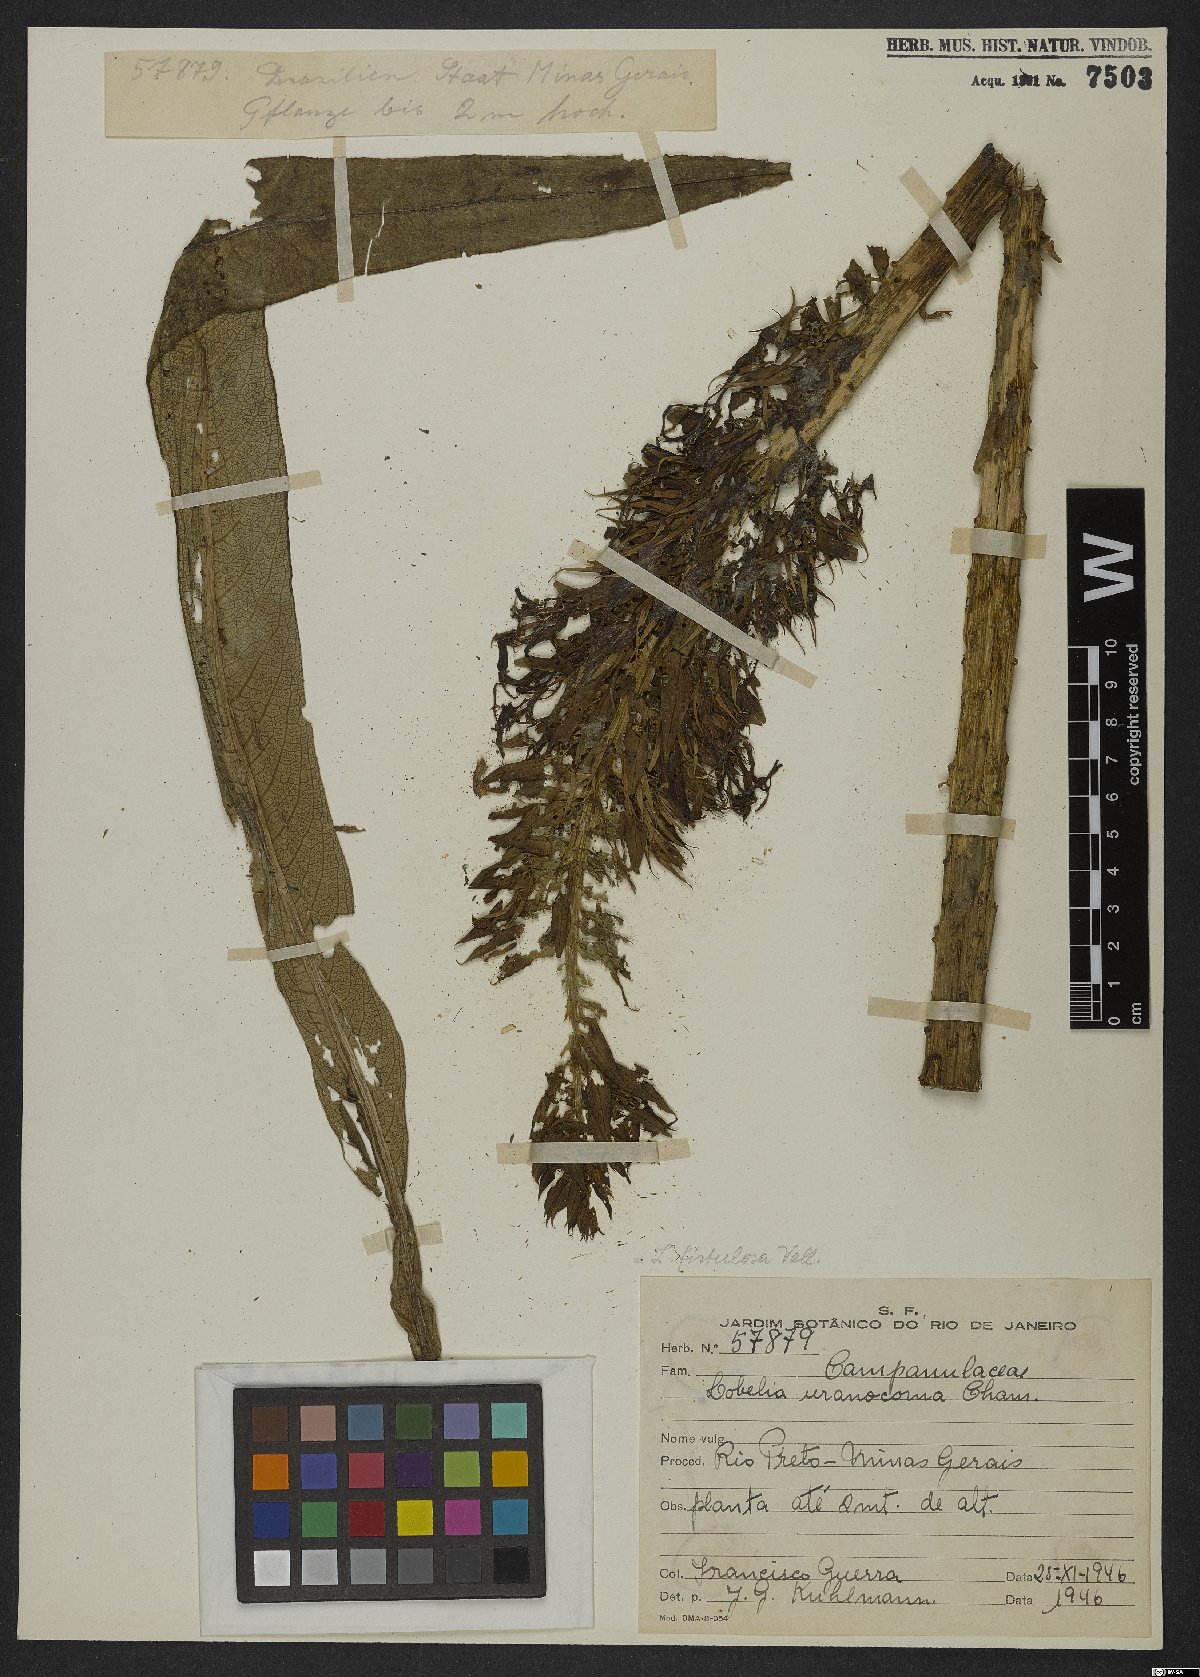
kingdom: Plantae
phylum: Tracheophyta
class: Magnoliopsida
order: Asterales
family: Campanulaceae
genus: Lobelia
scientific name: Lobelia fistulosa
